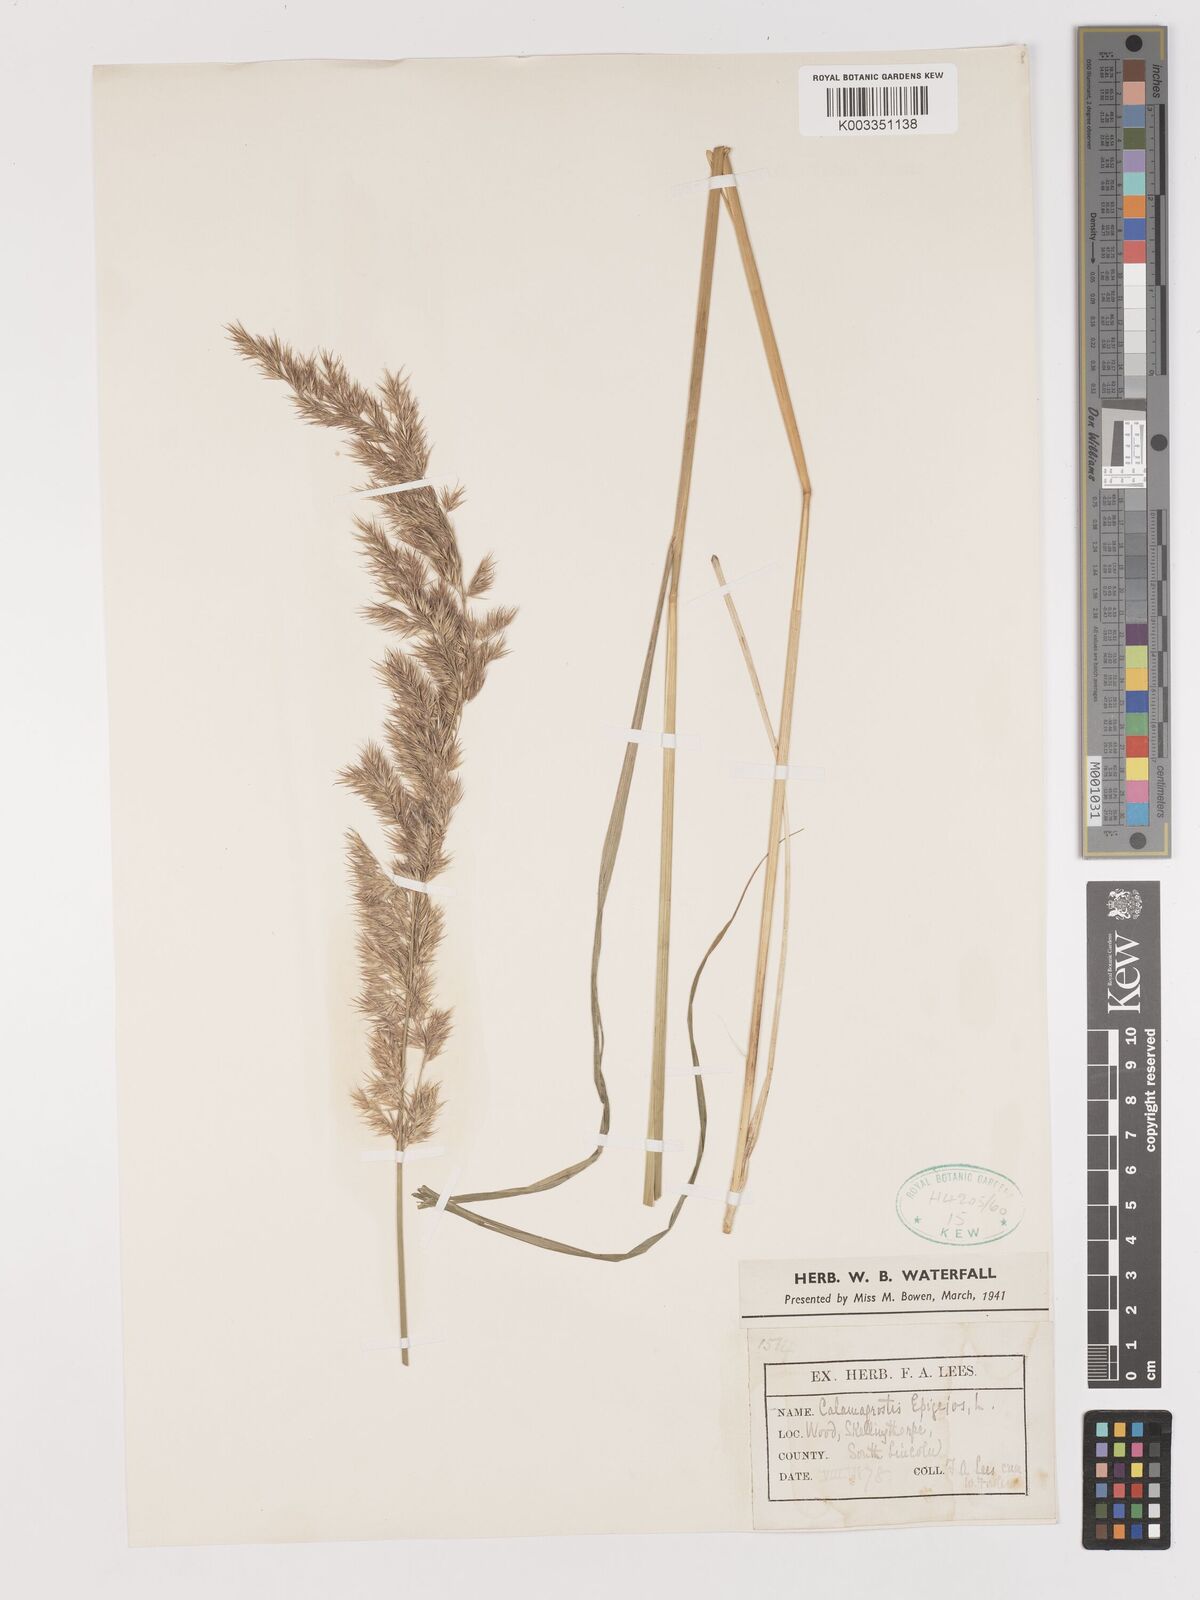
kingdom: Plantae
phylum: Tracheophyta
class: Liliopsida
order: Poales
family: Poaceae
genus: Calamagrostis
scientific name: Calamagrostis
